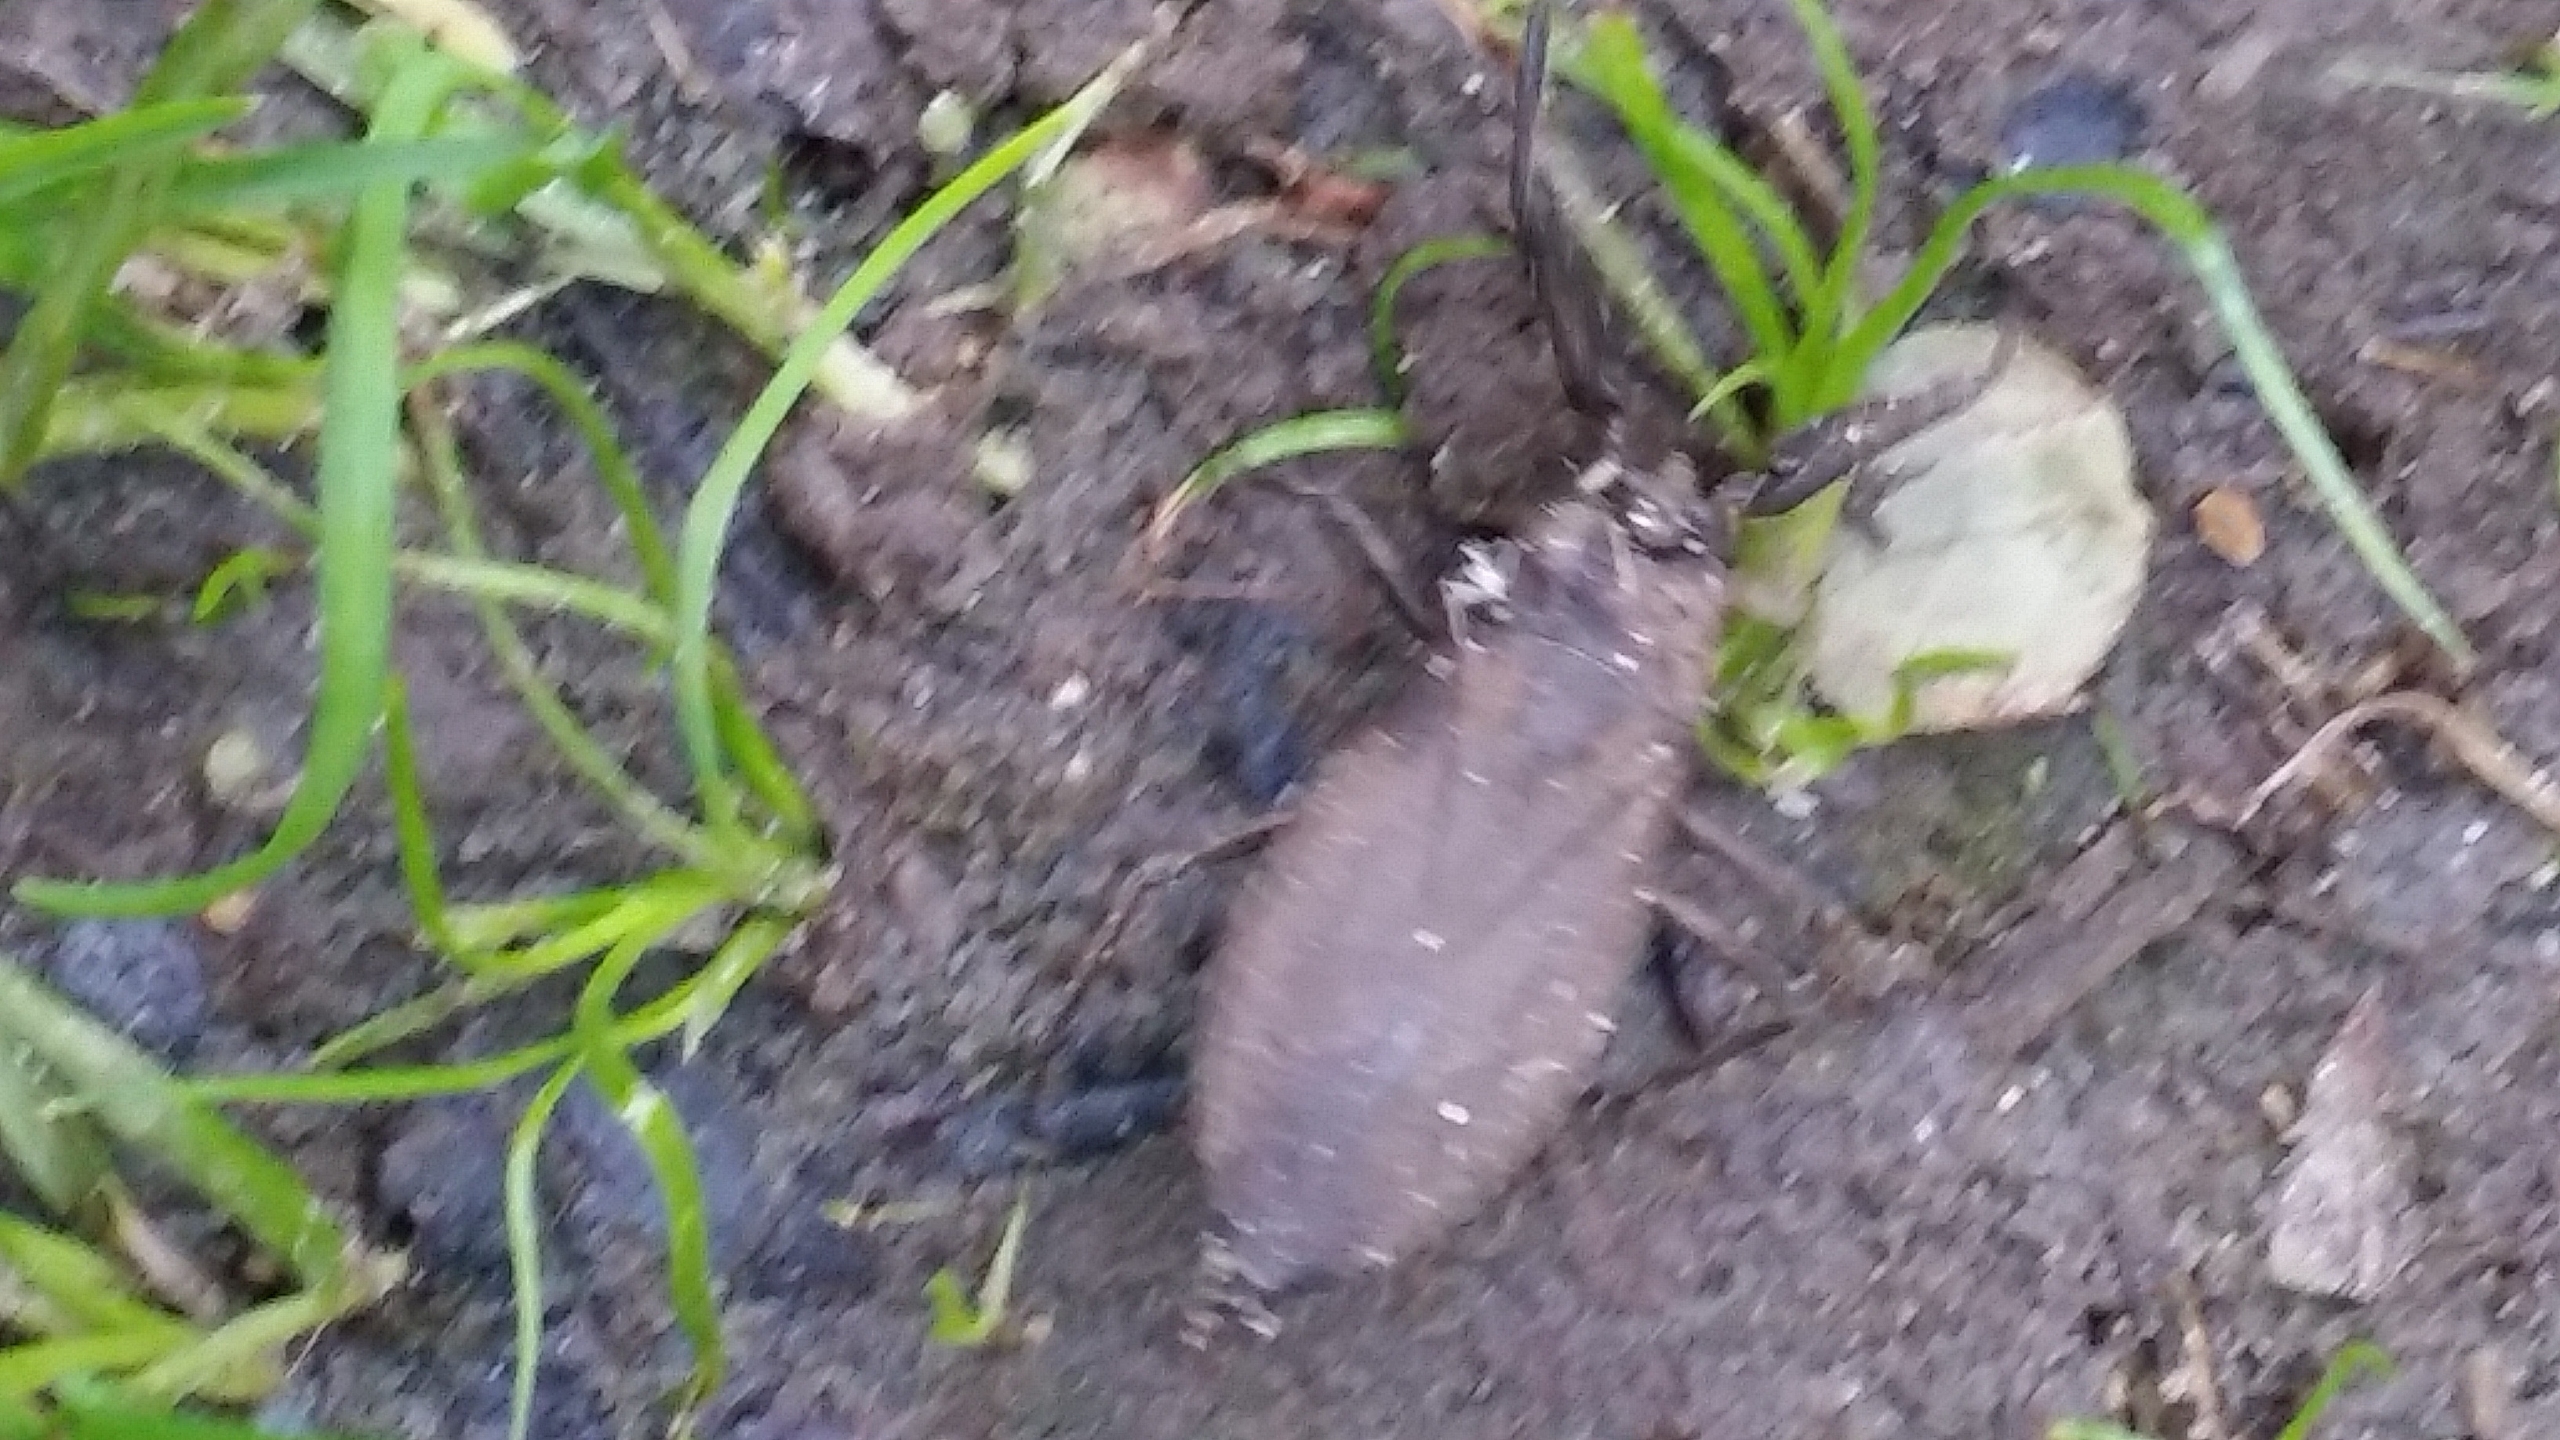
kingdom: Animalia
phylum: Arthropoda
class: Insecta
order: Hemiptera
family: Nepidae
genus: Nepa
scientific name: Nepa cinerea
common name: Skorpiontæge
